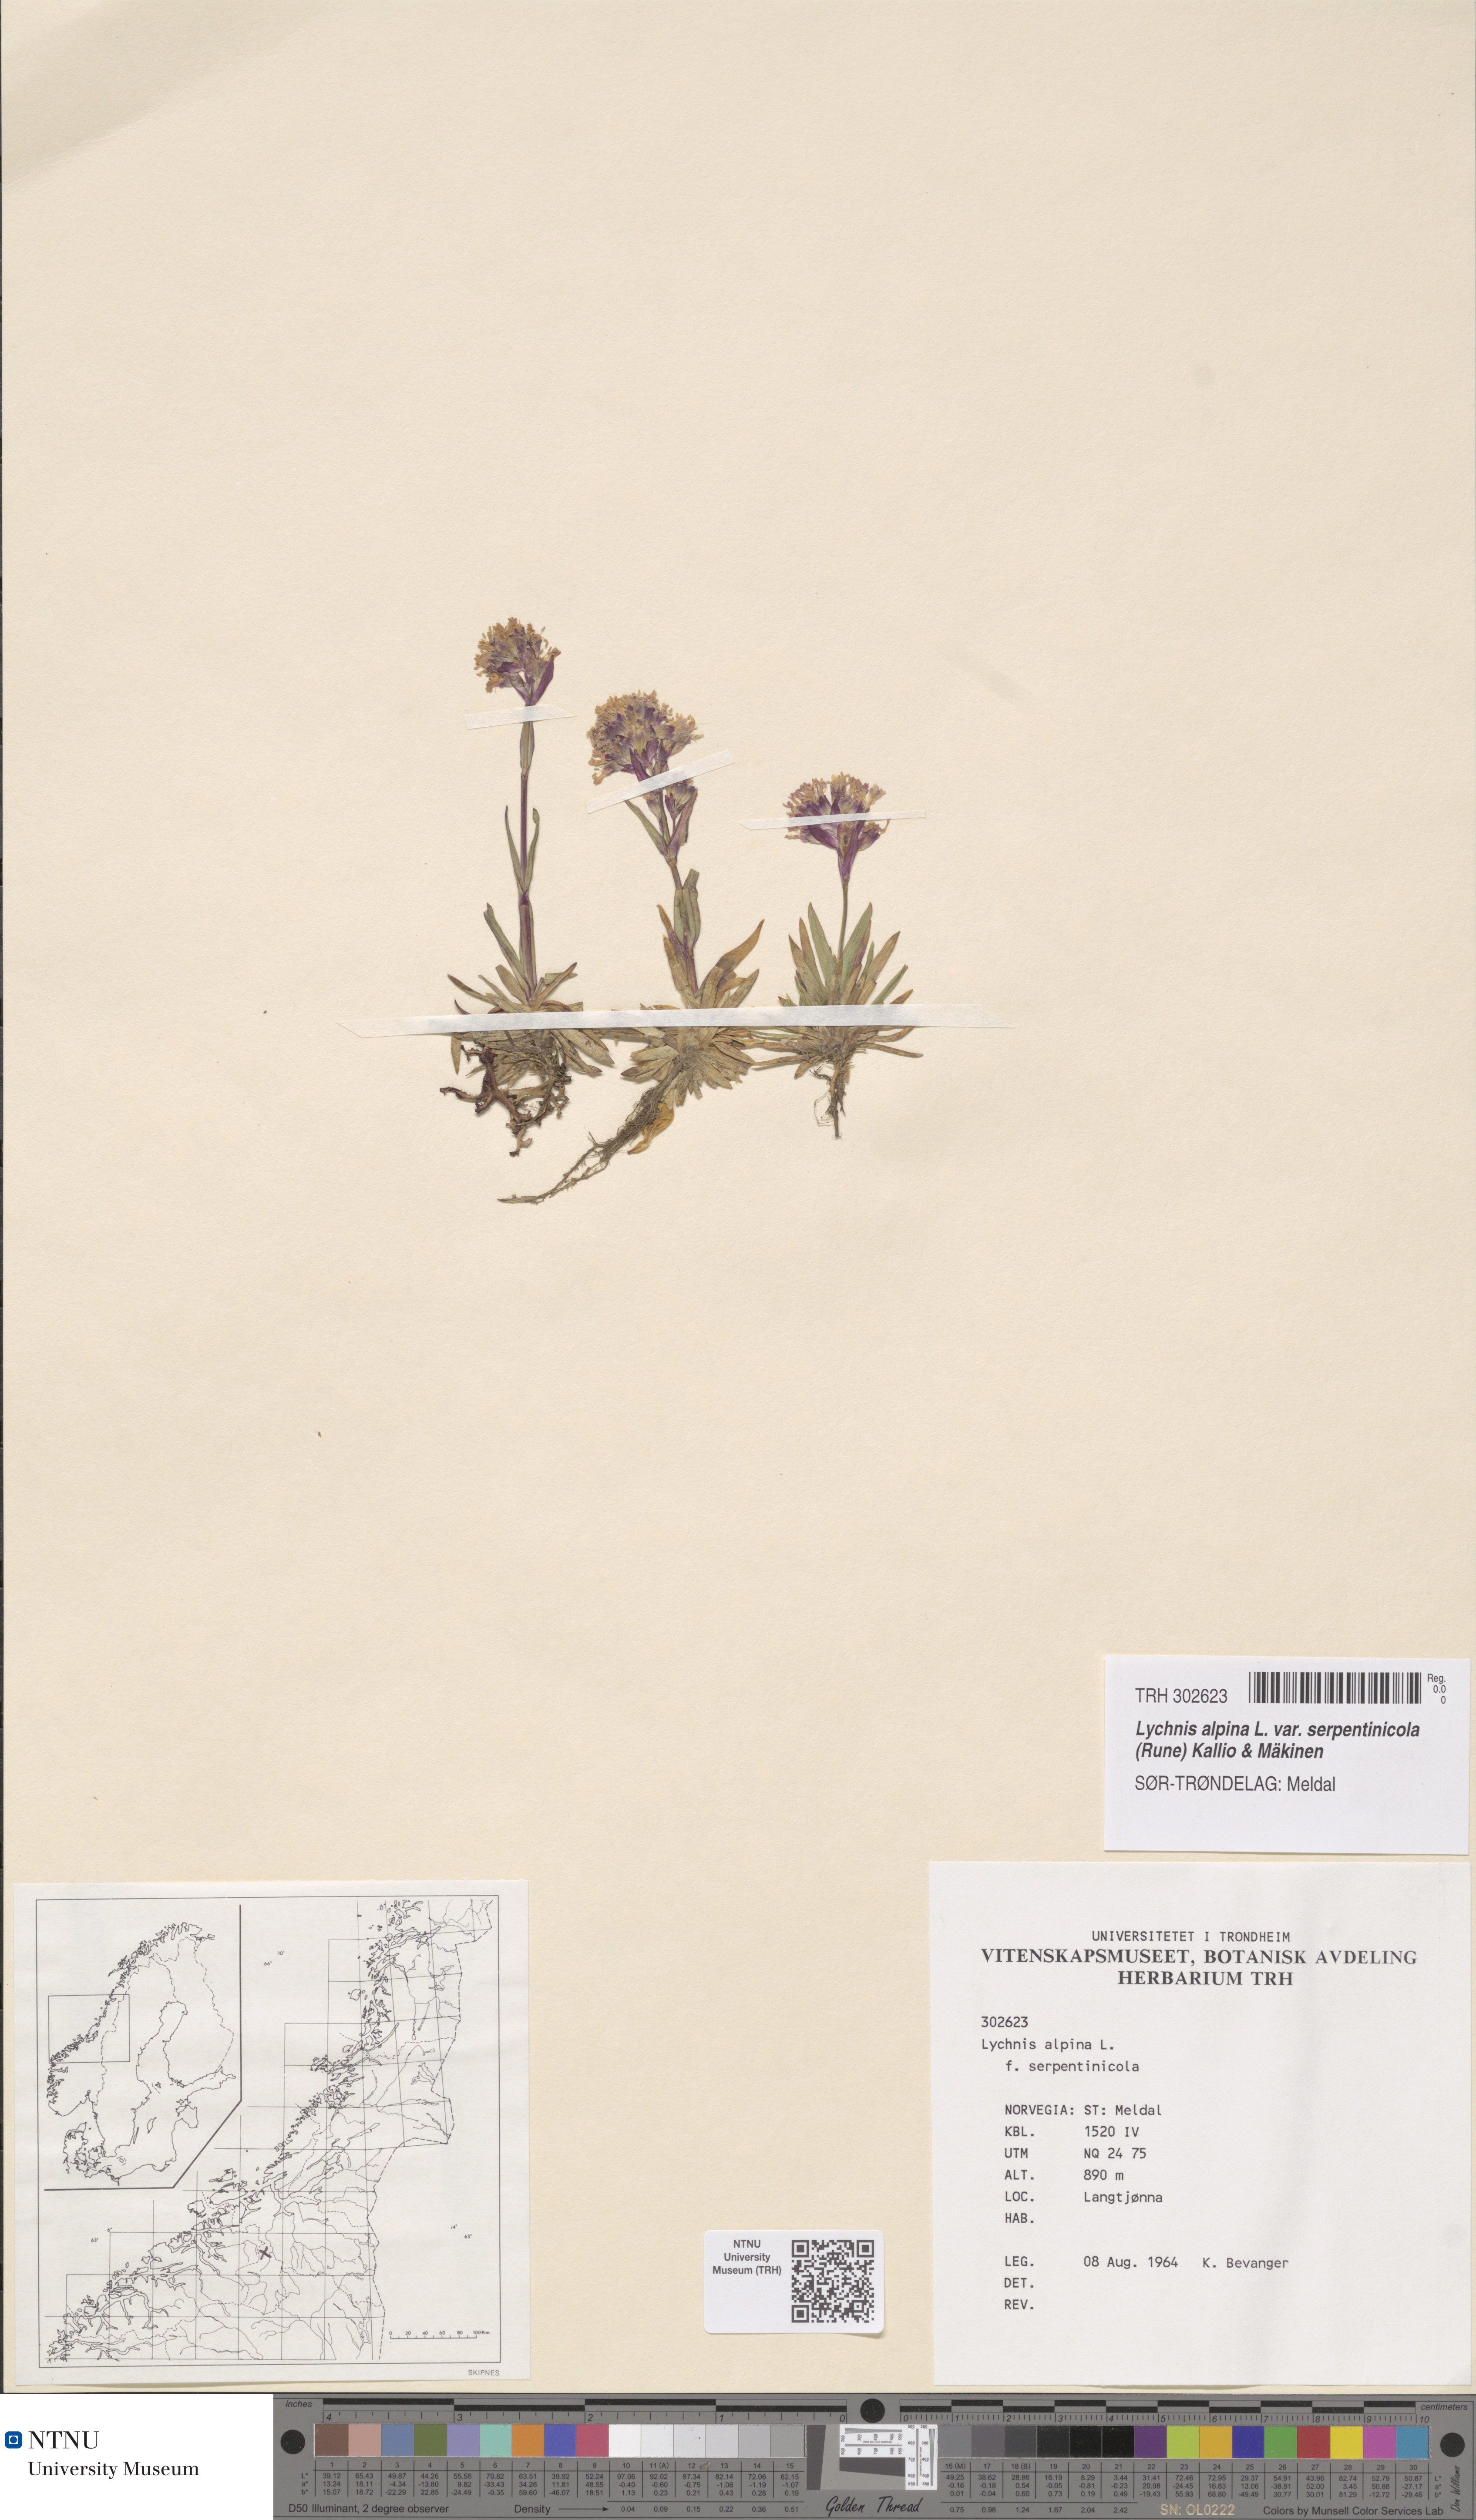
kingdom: Plantae
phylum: Tracheophyta
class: Magnoliopsida
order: Caryophyllales
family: Caryophyllaceae
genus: Viscaria
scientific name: Viscaria alpina
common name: Alpine campion
